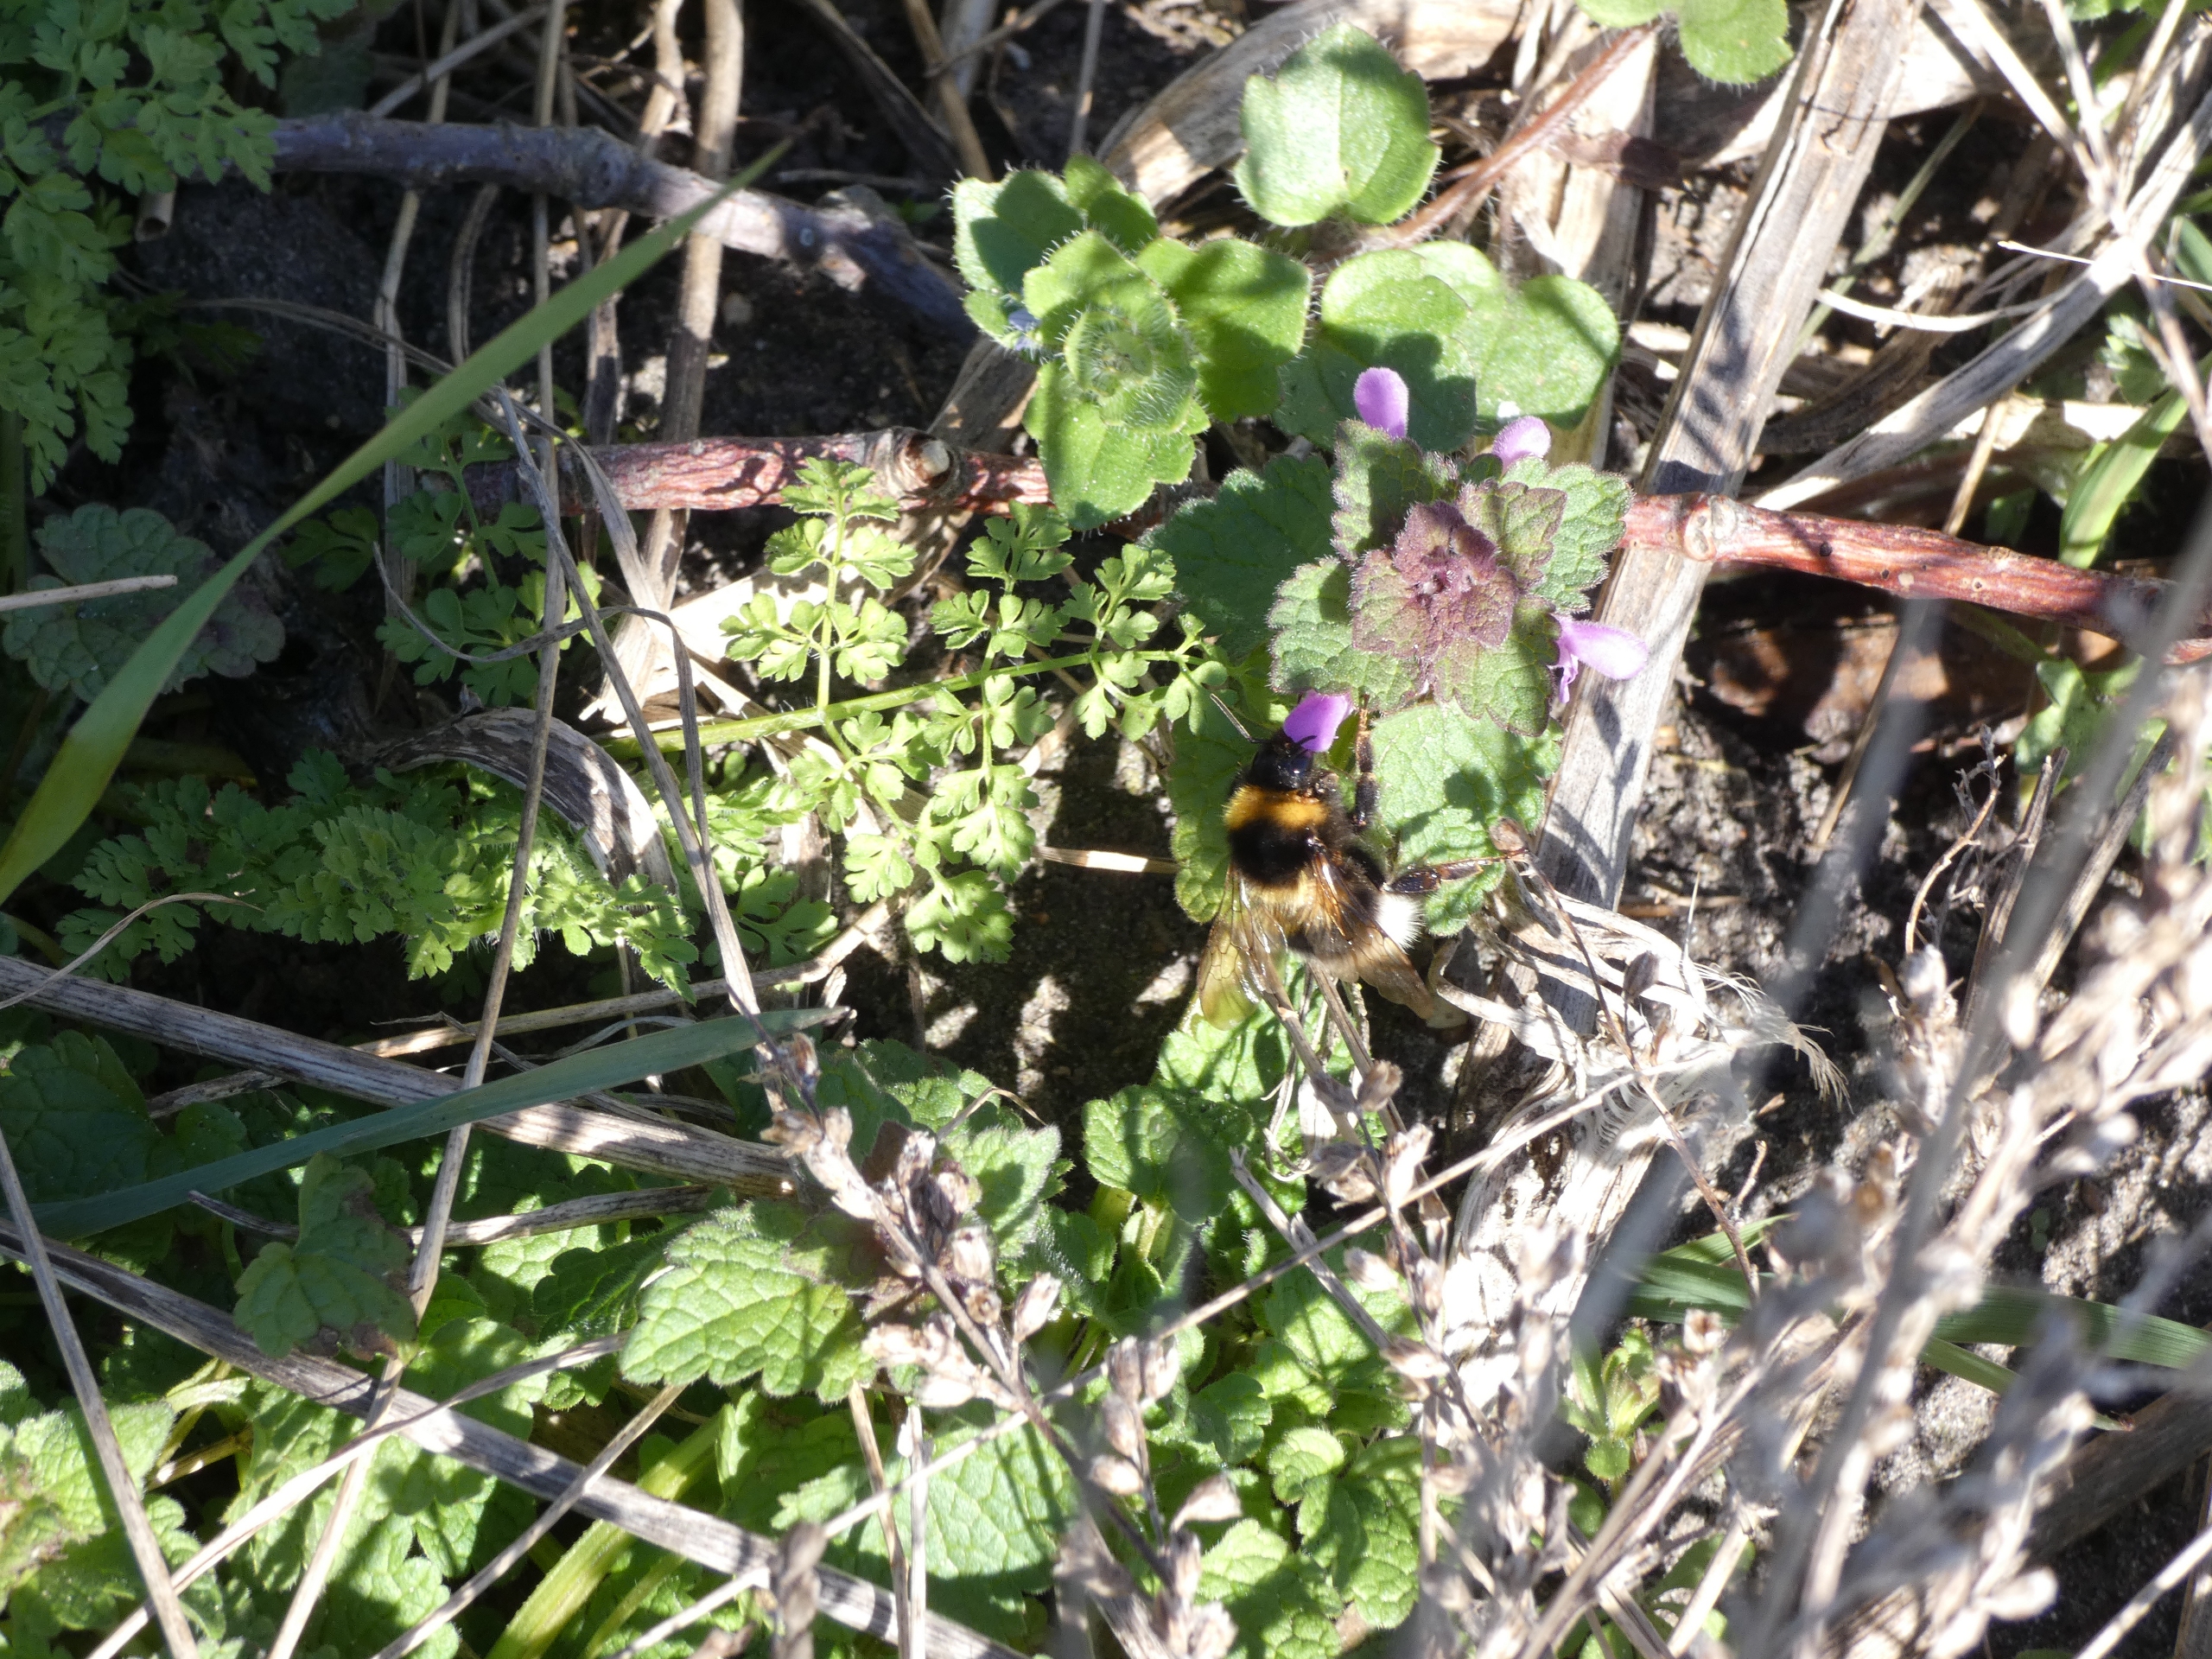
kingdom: Animalia
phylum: Arthropoda
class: Insecta
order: Hymenoptera
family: Apidae
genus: Bombus
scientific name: Bombus hortorum
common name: Havehumle
